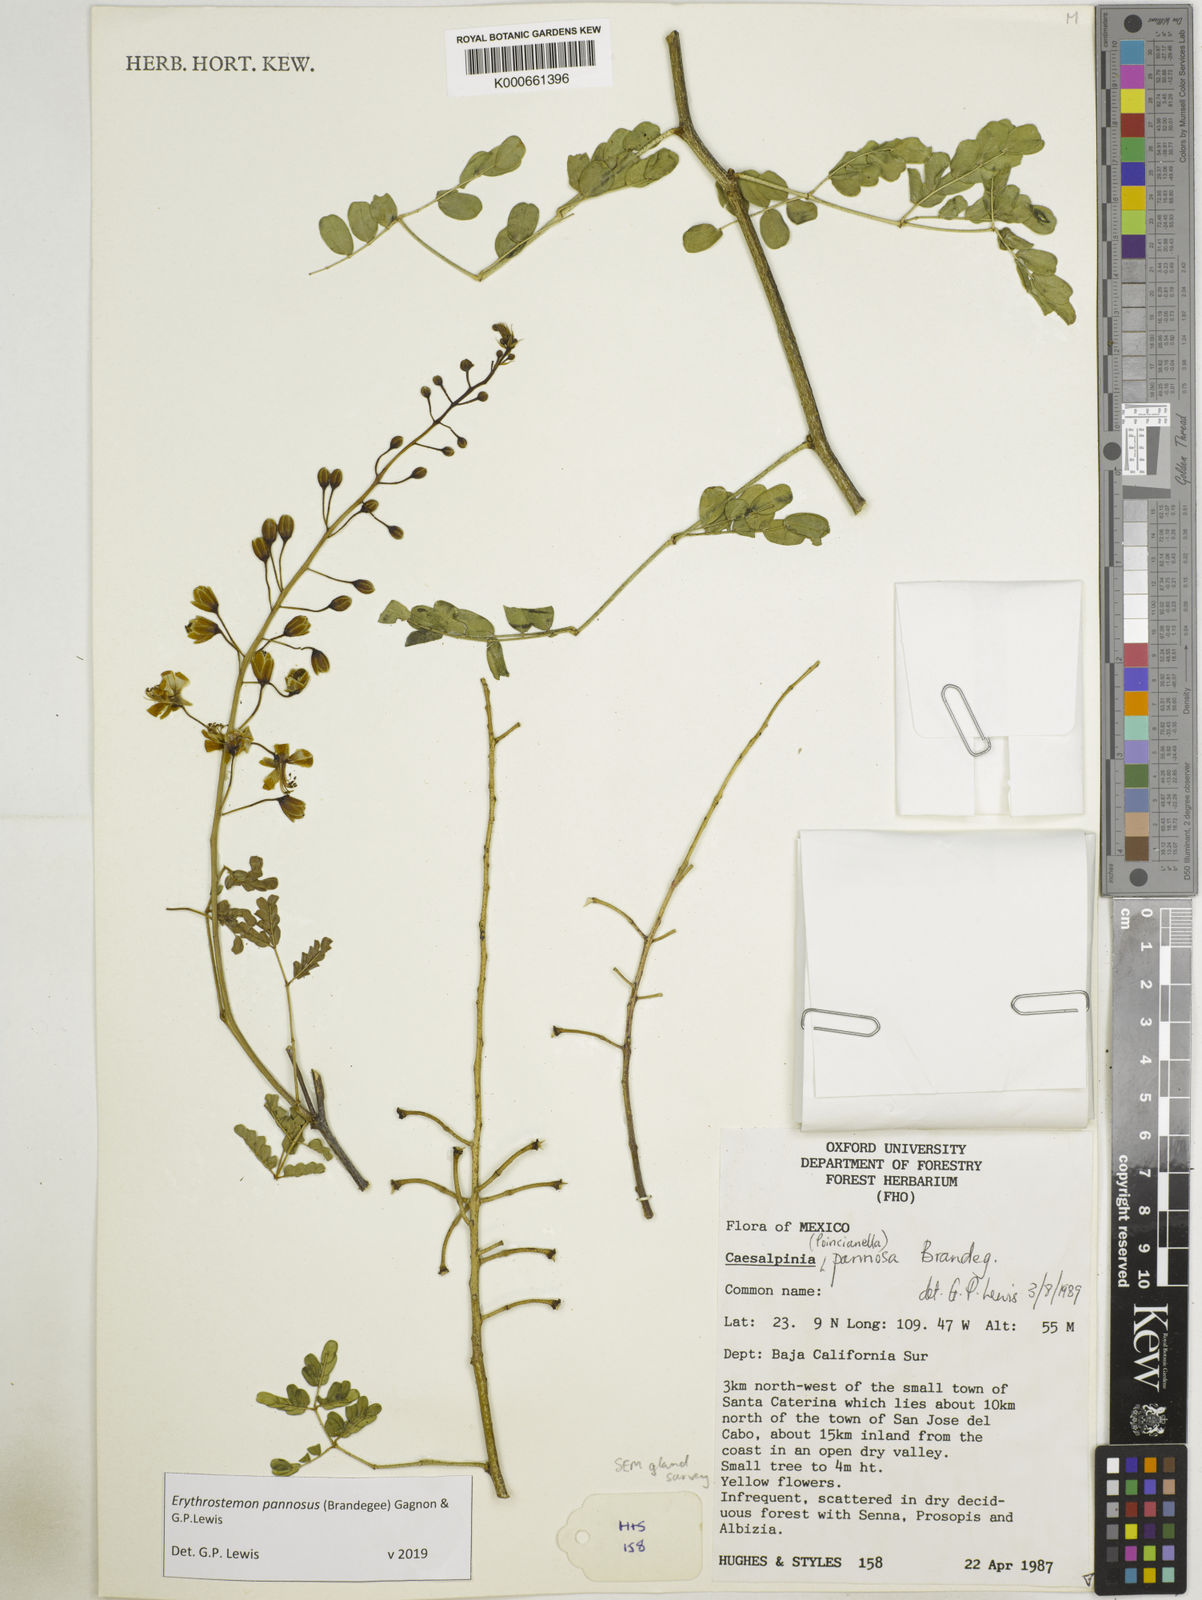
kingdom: Plantae
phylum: Tracheophyta
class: Magnoliopsida
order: Fabales
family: Fabaceae
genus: Erythrostemon
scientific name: Erythrostemon pannosus
